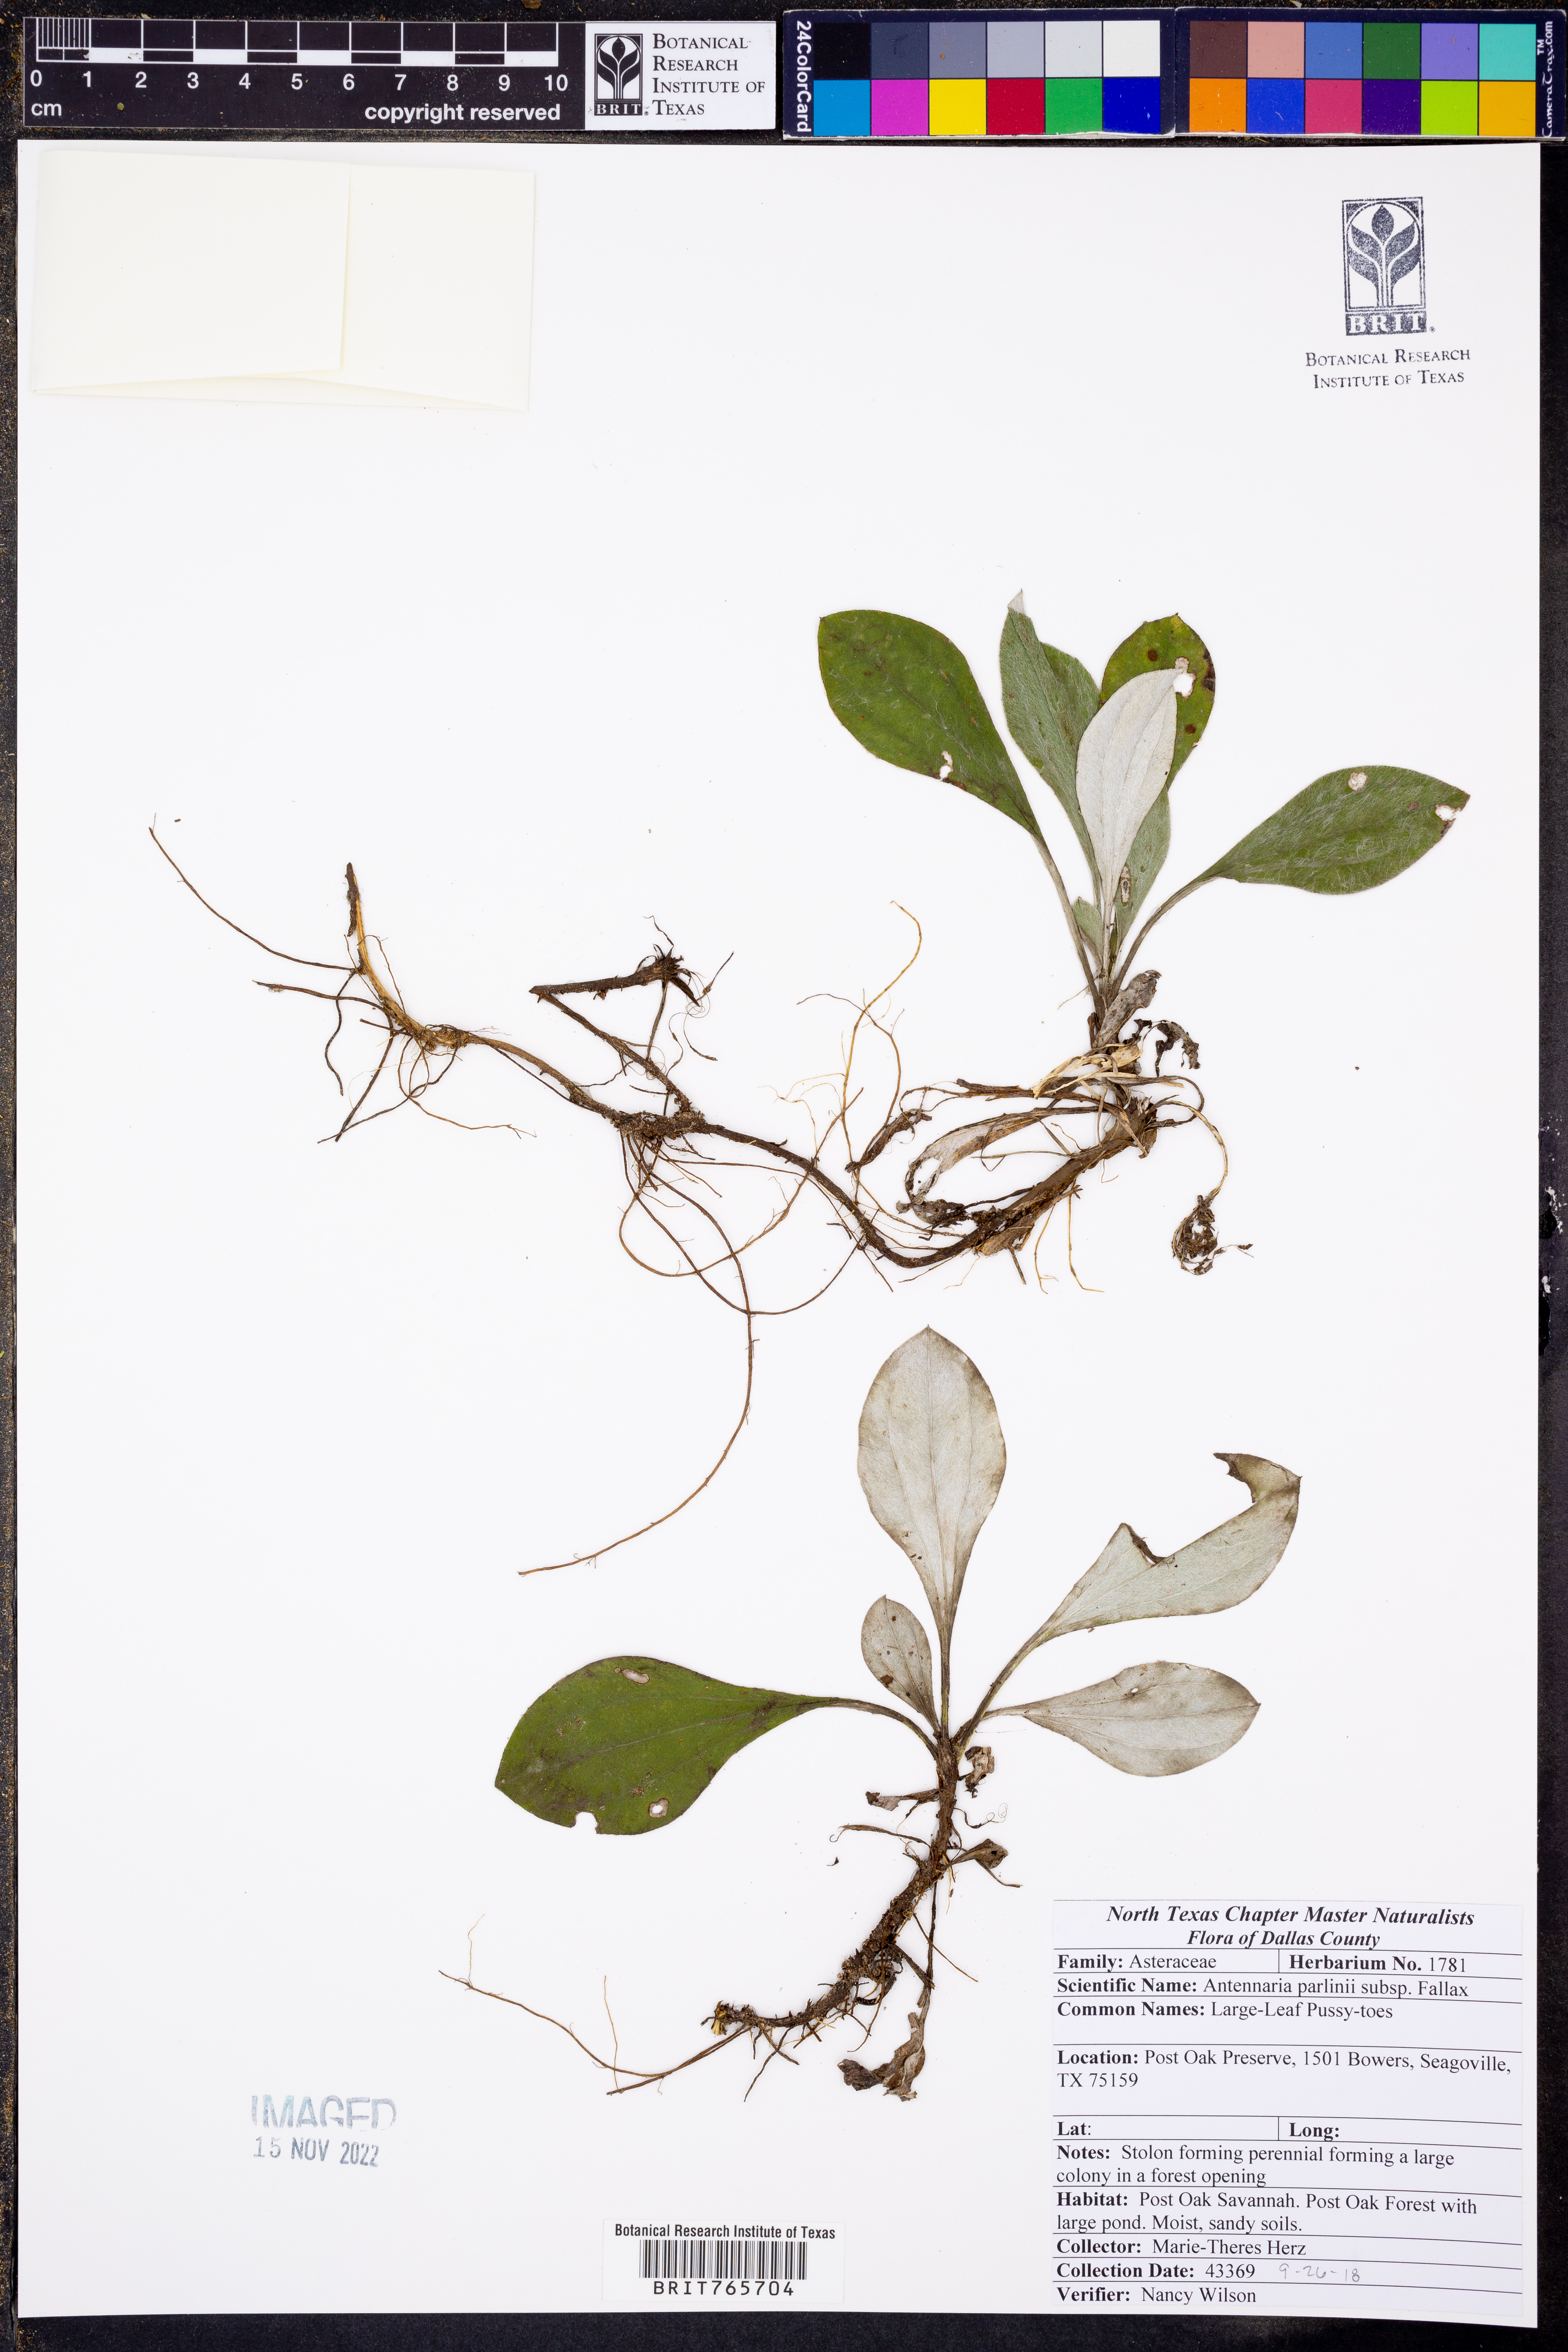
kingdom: Plantae
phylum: Tracheophyta
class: Magnoliopsida
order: Asterales
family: Asteraceae
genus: Antennaria
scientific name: Antennaria parlinii
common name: Parlin's pussytoes
